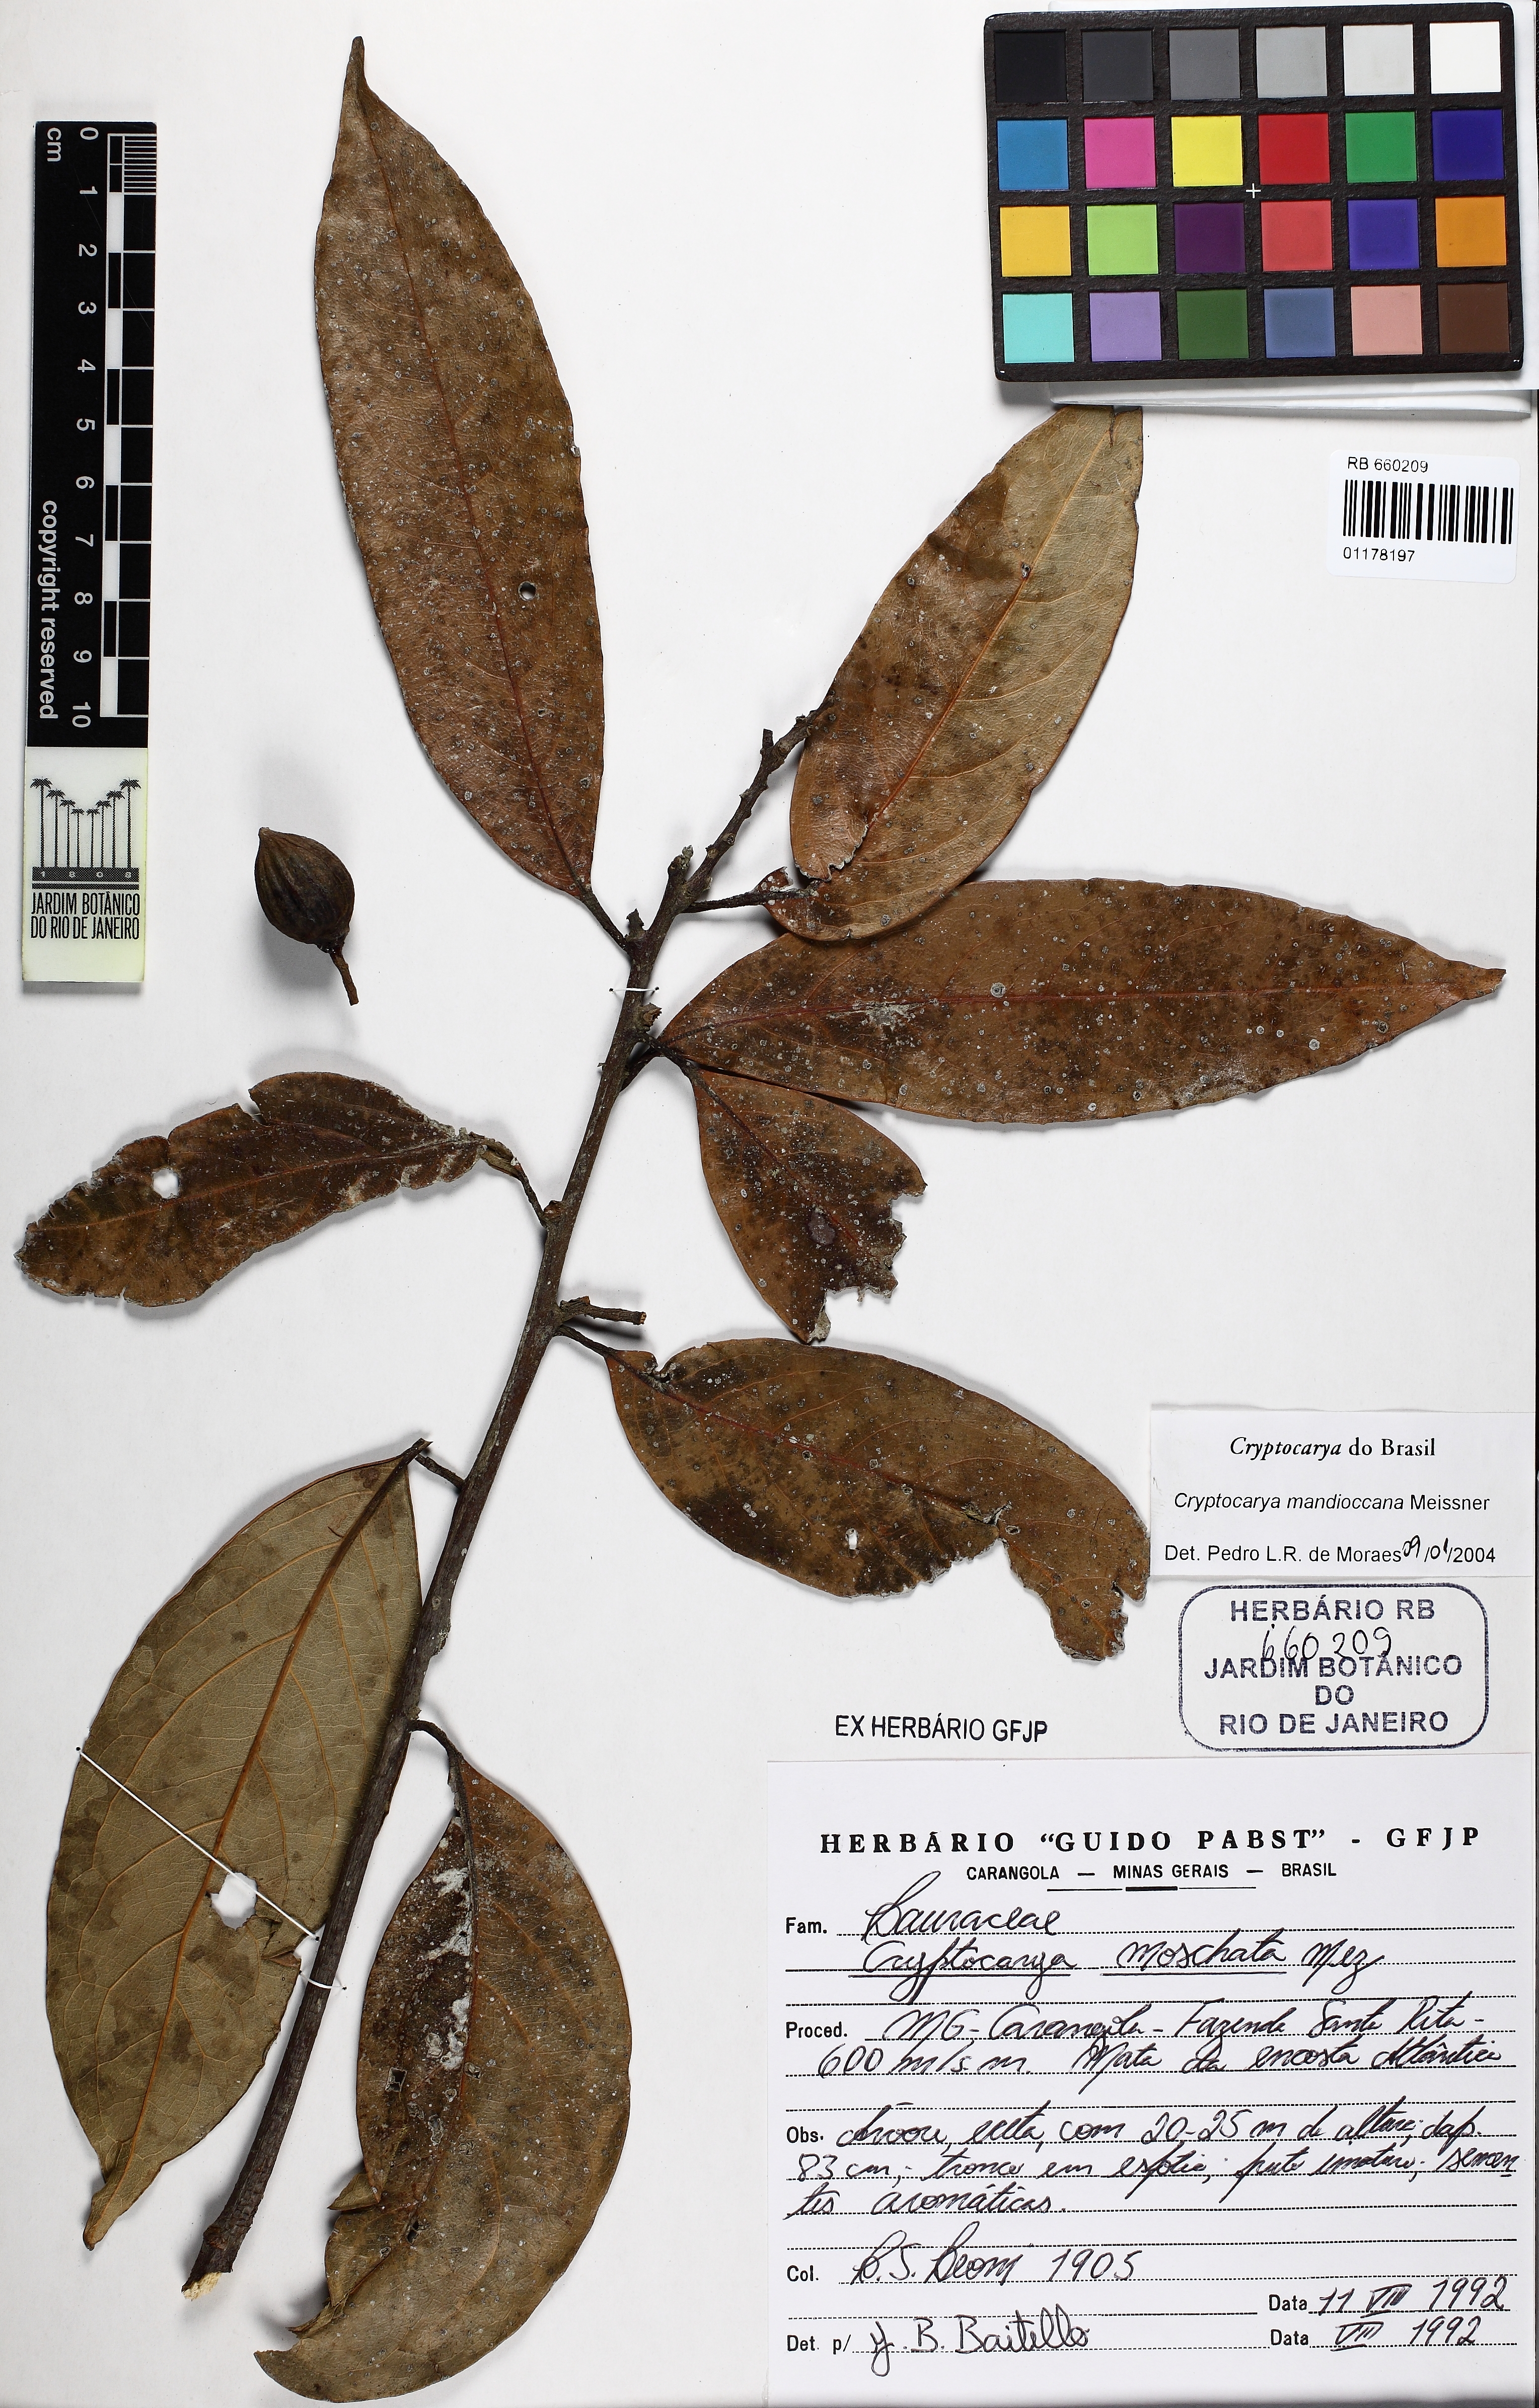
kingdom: Plantae
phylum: Tracheophyta
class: Magnoliopsida
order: Laurales
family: Lauraceae
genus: Cryptocarya
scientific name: Cryptocarya mandioccana
